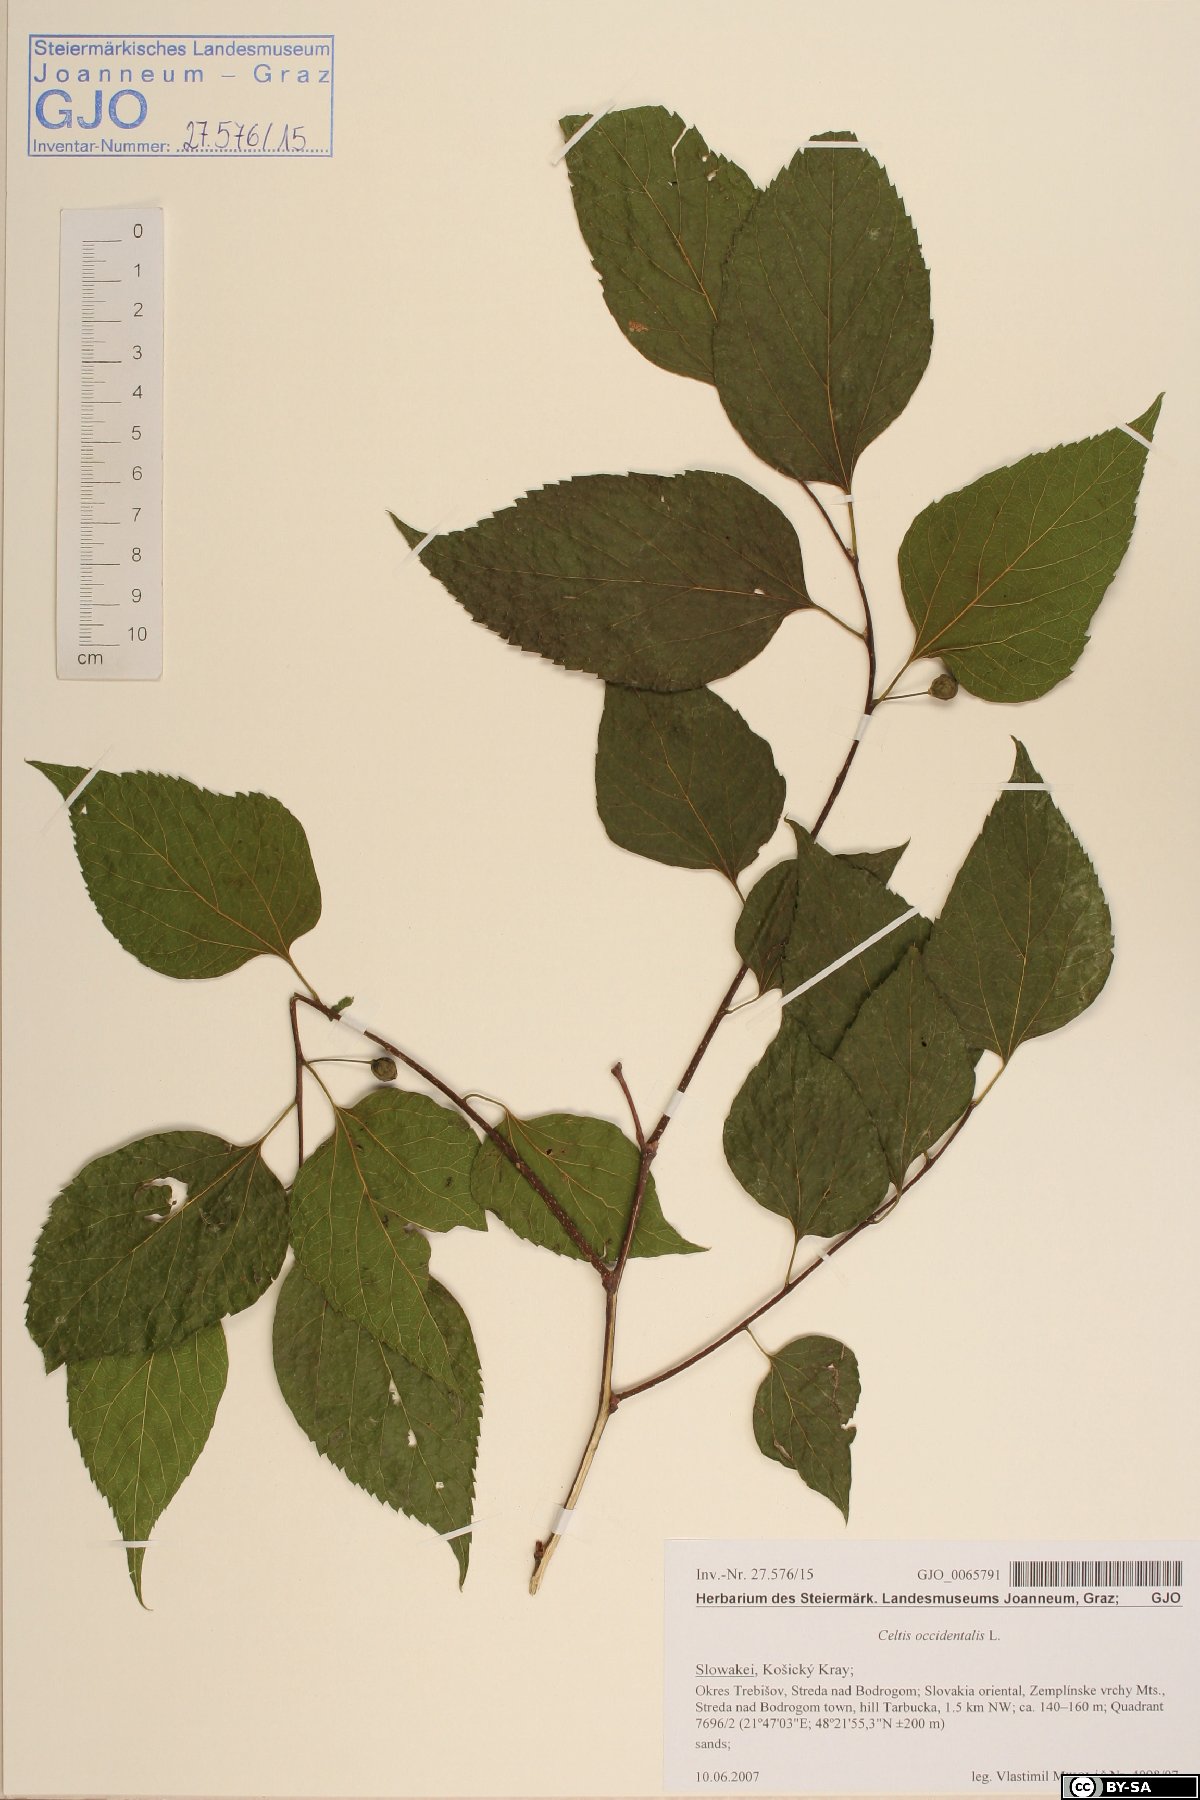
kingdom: Plantae
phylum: Tracheophyta
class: Magnoliopsida
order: Rosales
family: Cannabaceae
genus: Celtis
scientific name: Celtis occidentalis
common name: Common hackberry
